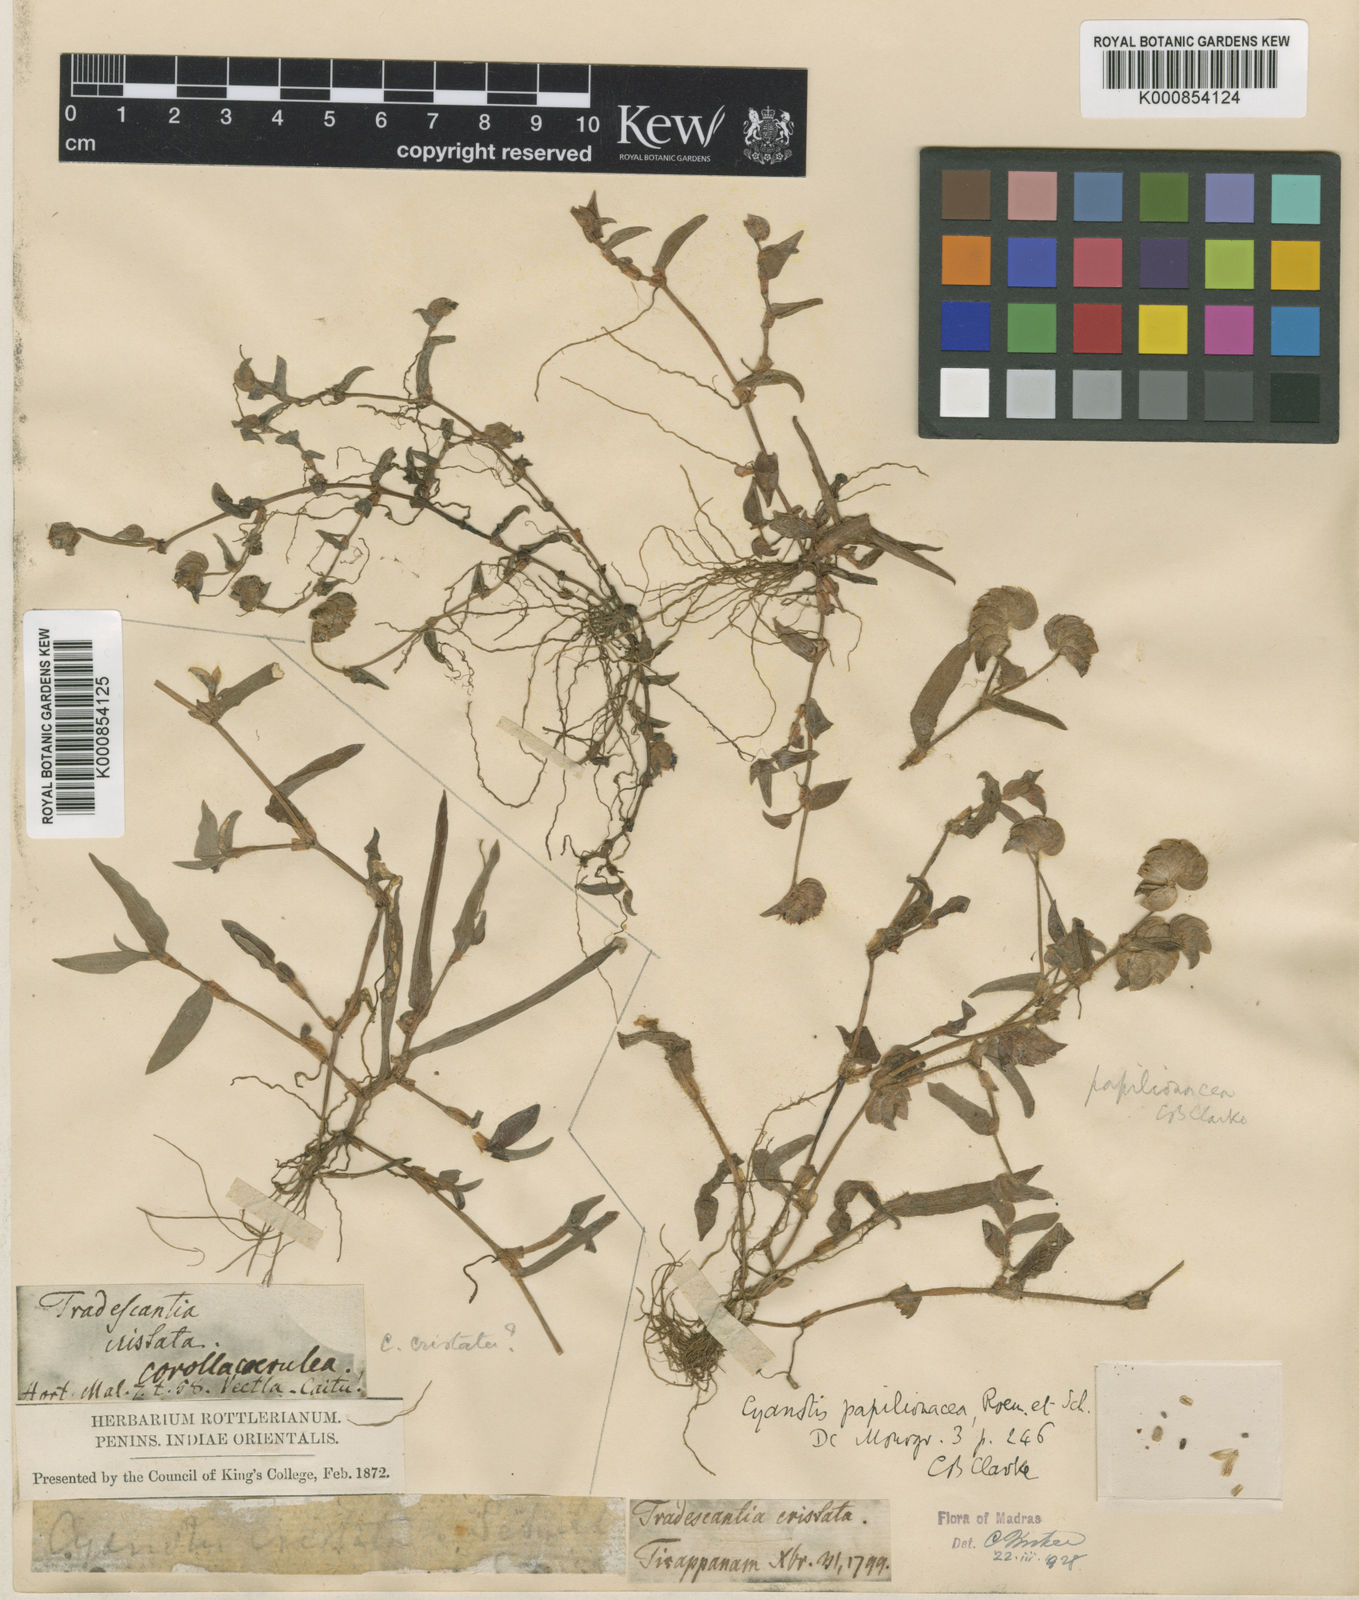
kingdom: Plantae
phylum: Tracheophyta
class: Liliopsida
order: Commelinales
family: Commelinaceae
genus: Cyanotis
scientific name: Cyanotis cristata
